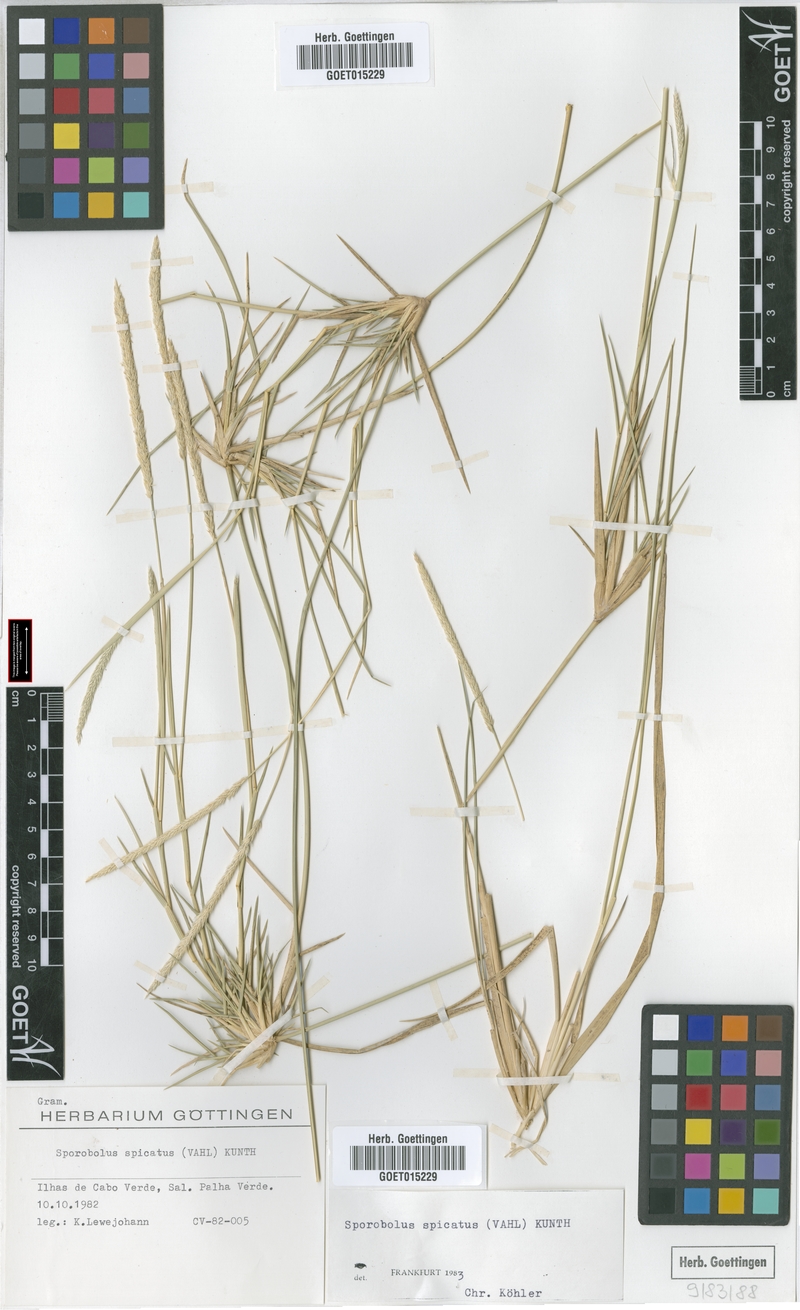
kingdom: Plantae
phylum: Tracheophyta
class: Liliopsida
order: Poales
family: Poaceae
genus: Sporobolus
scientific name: Sporobolus spicatus
